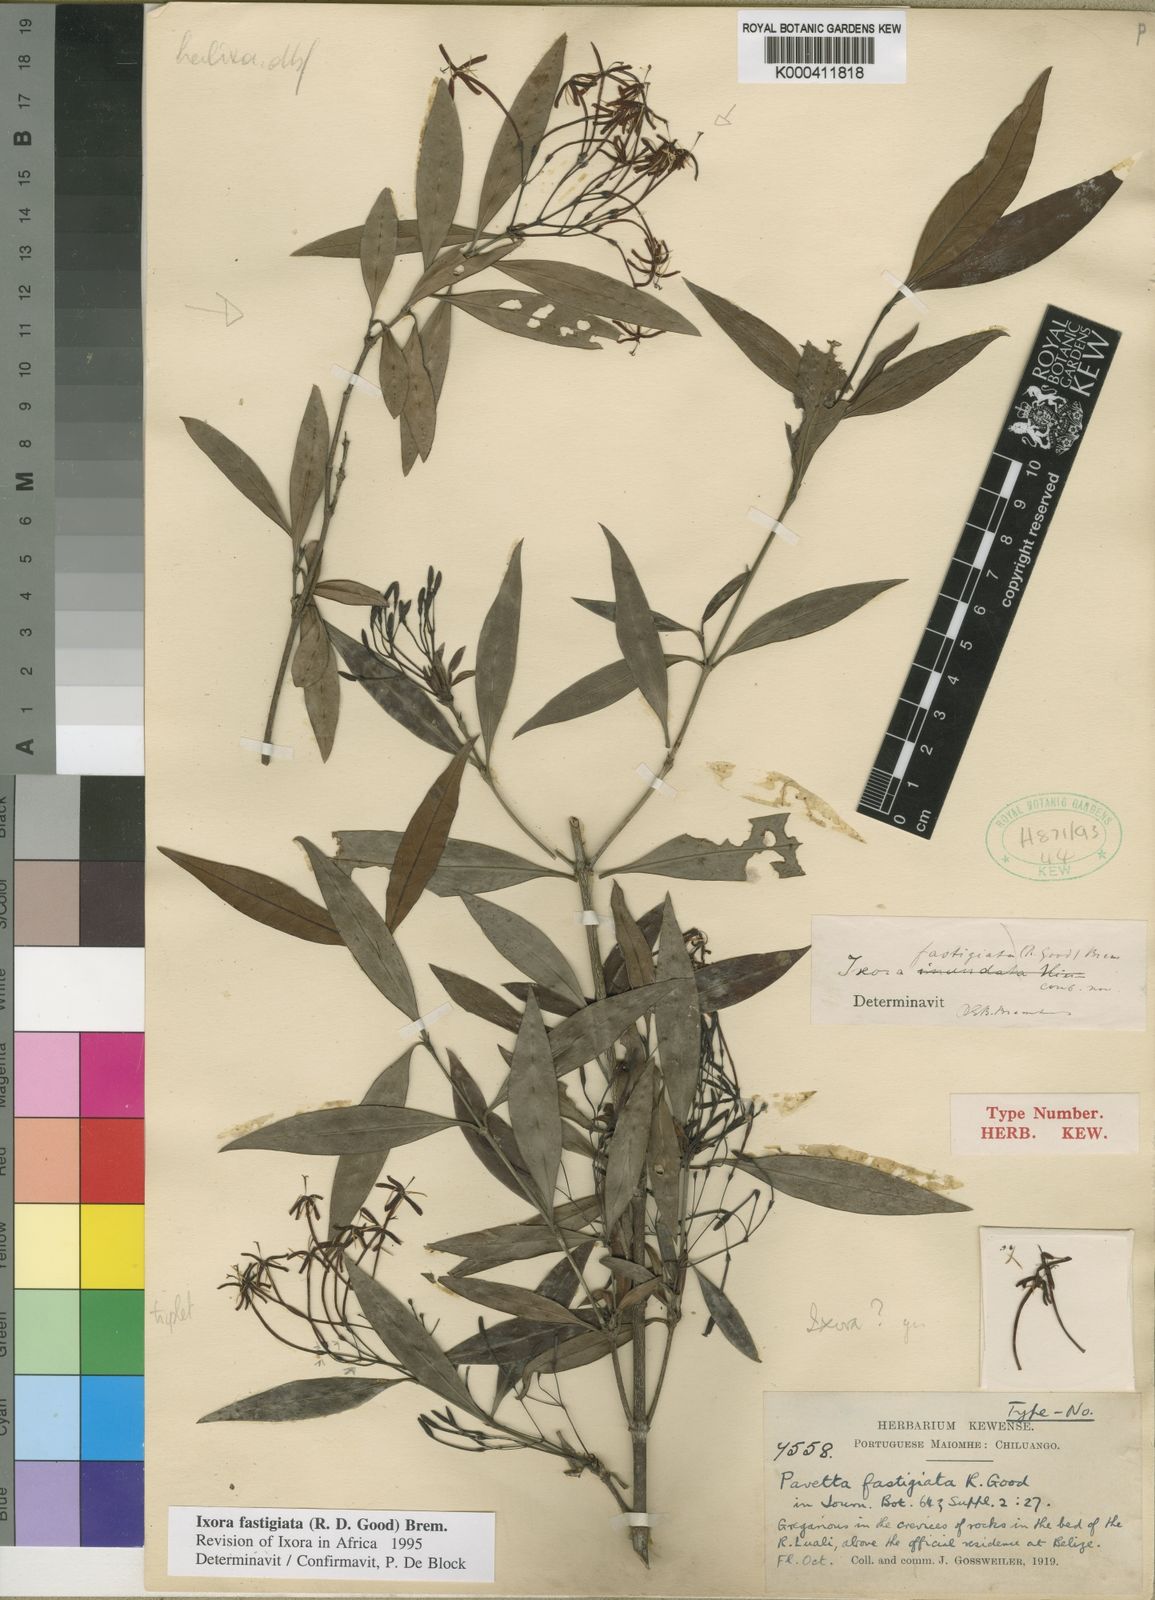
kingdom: Plantae
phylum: Tracheophyta
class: Magnoliopsida
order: Gentianales
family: Rubiaceae
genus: Ixora
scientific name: Ixora fastigiata
